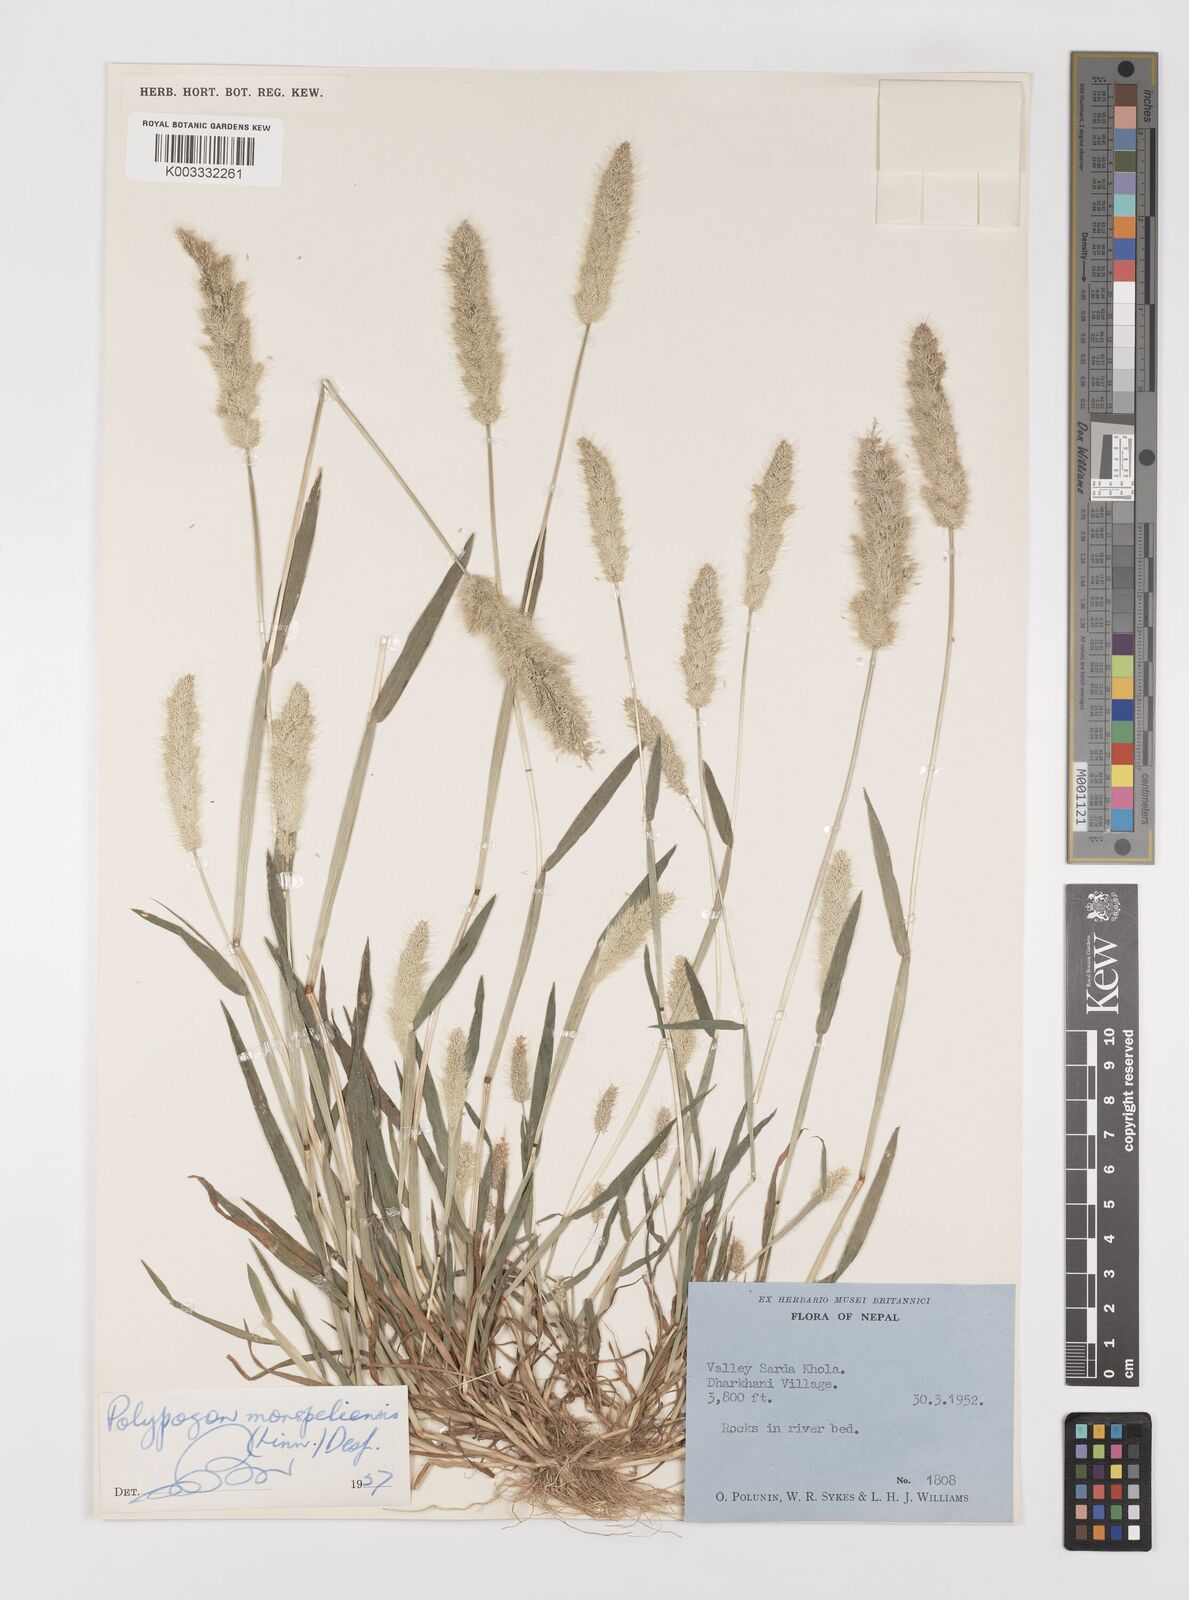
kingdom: Plantae
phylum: Tracheophyta
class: Liliopsida
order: Poales
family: Poaceae
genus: Polypogon
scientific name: Polypogon monspeliensis
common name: Annual rabbitsfoot grass
